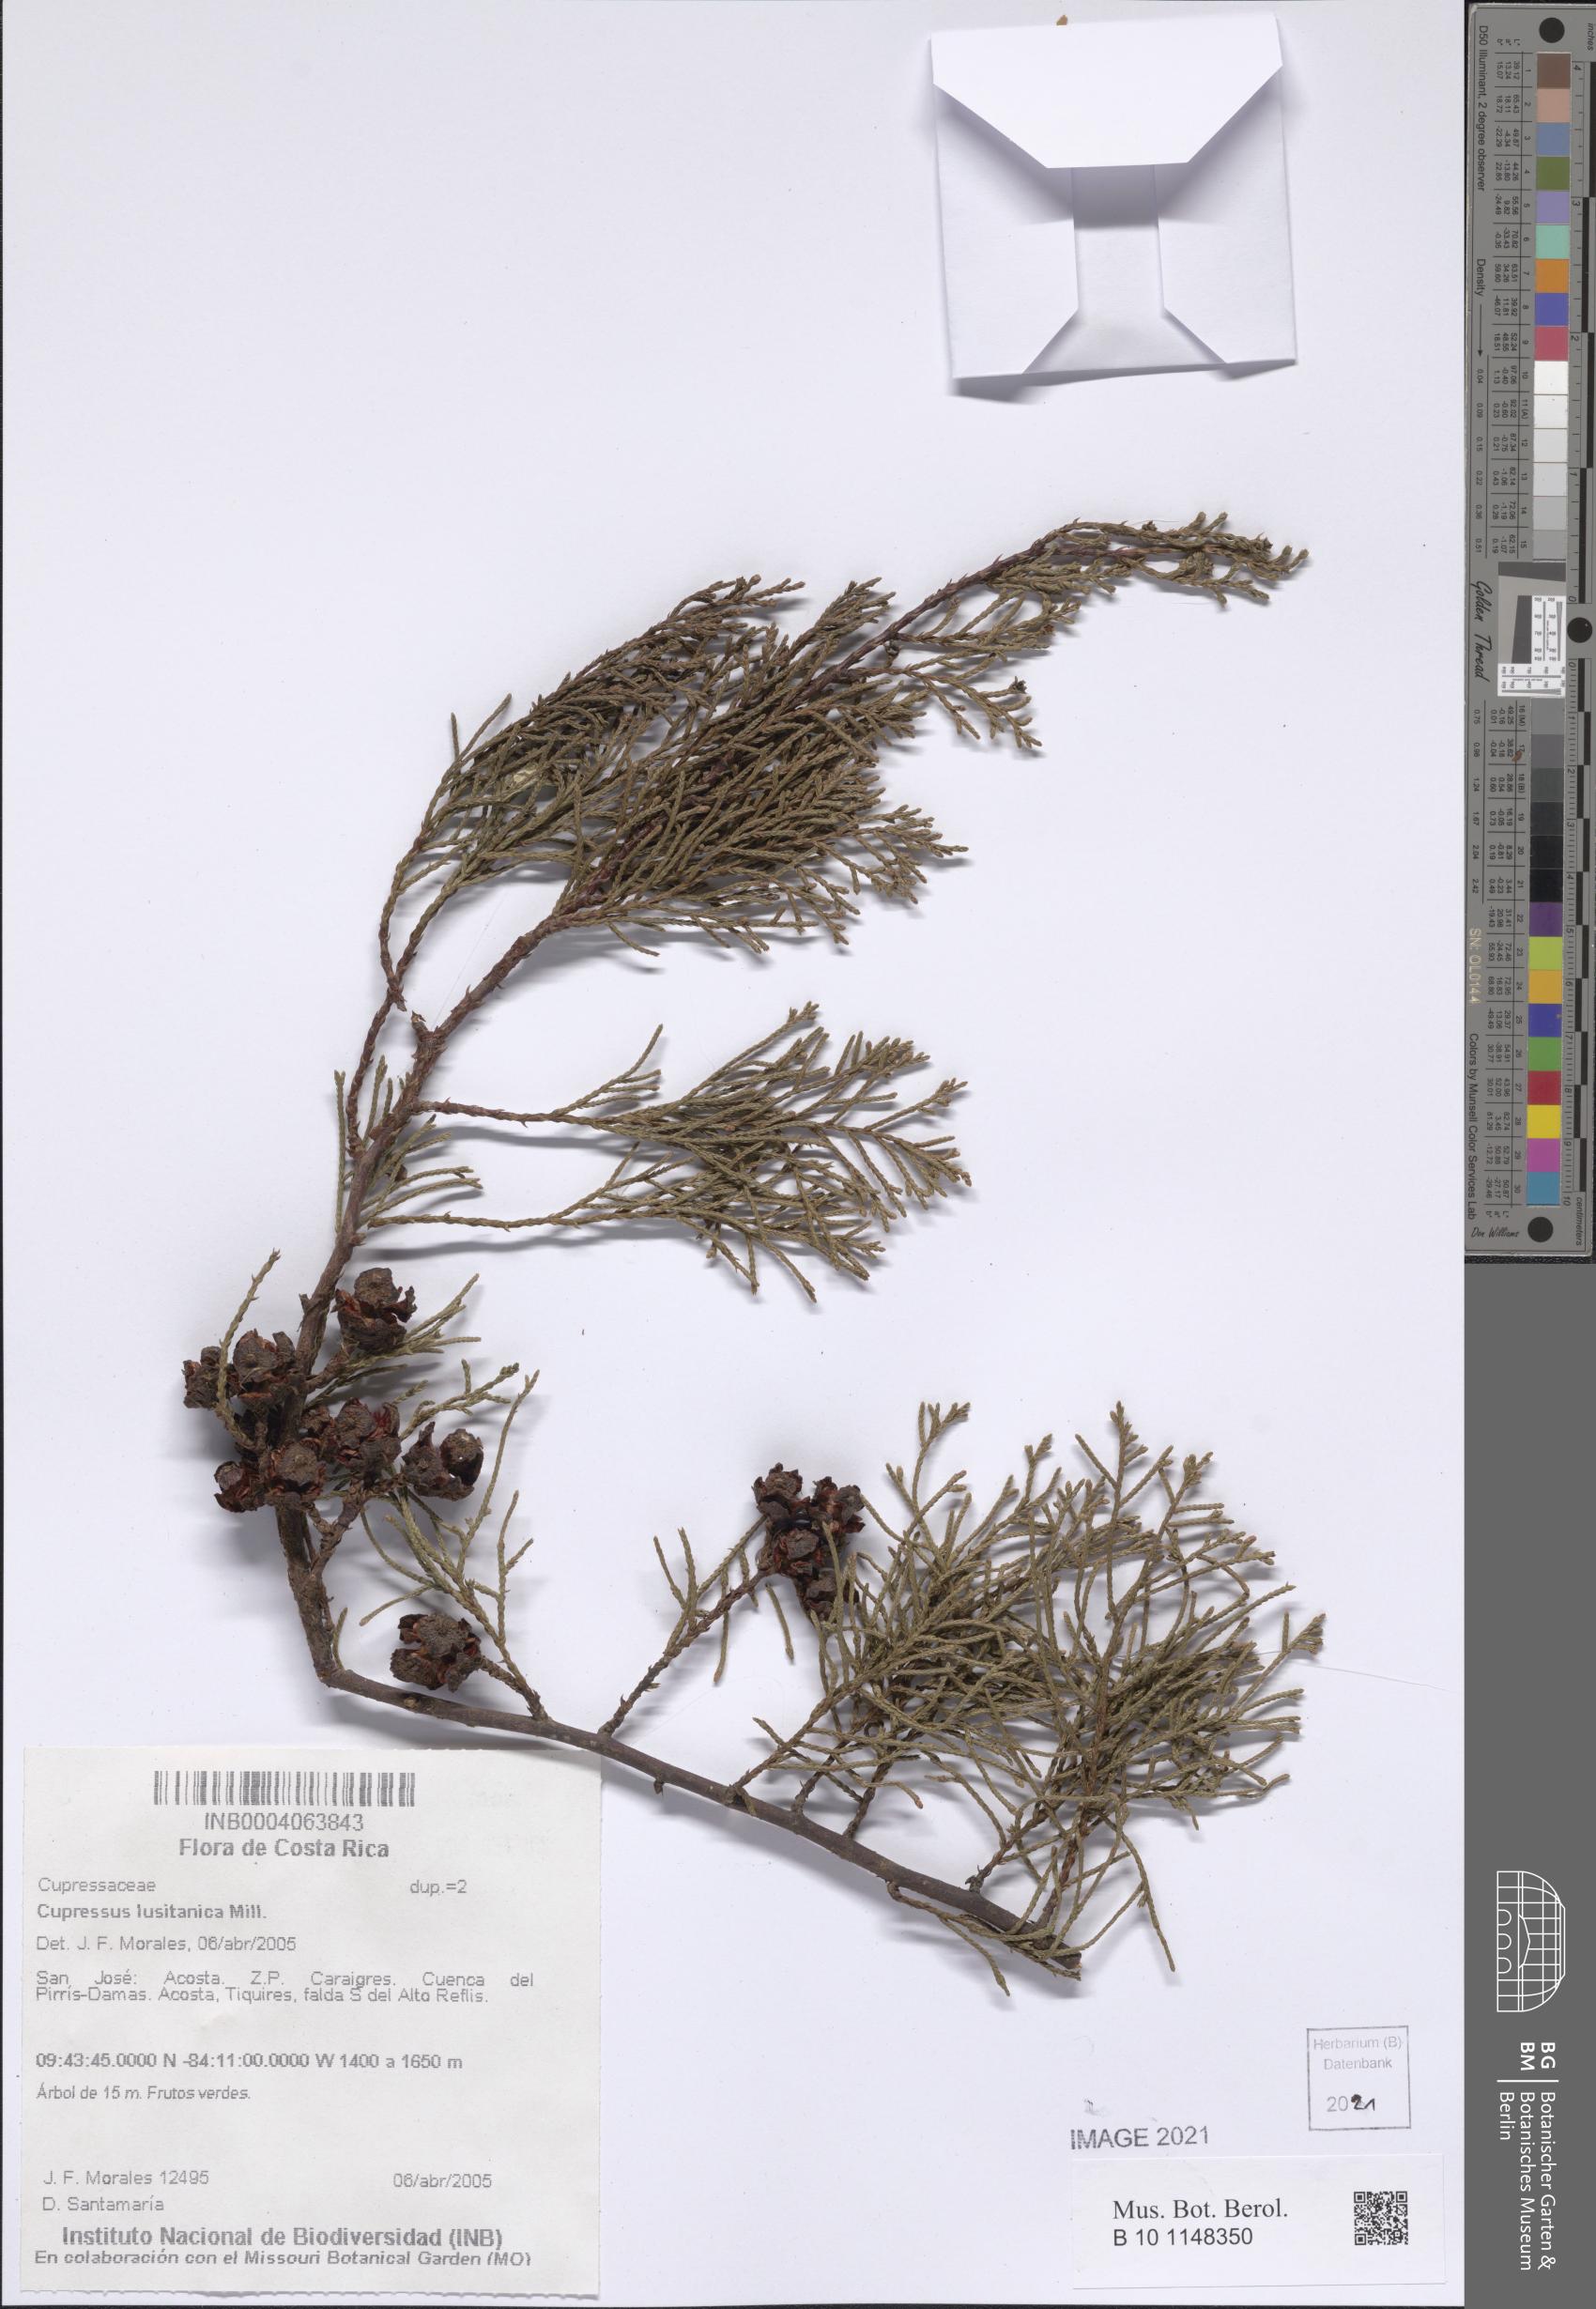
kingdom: Plantae
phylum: Tracheophyta
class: Pinopsida
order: Pinales
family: Cupressaceae
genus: Cupressus
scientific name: Cupressus lusitanica
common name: Mexican cypress
